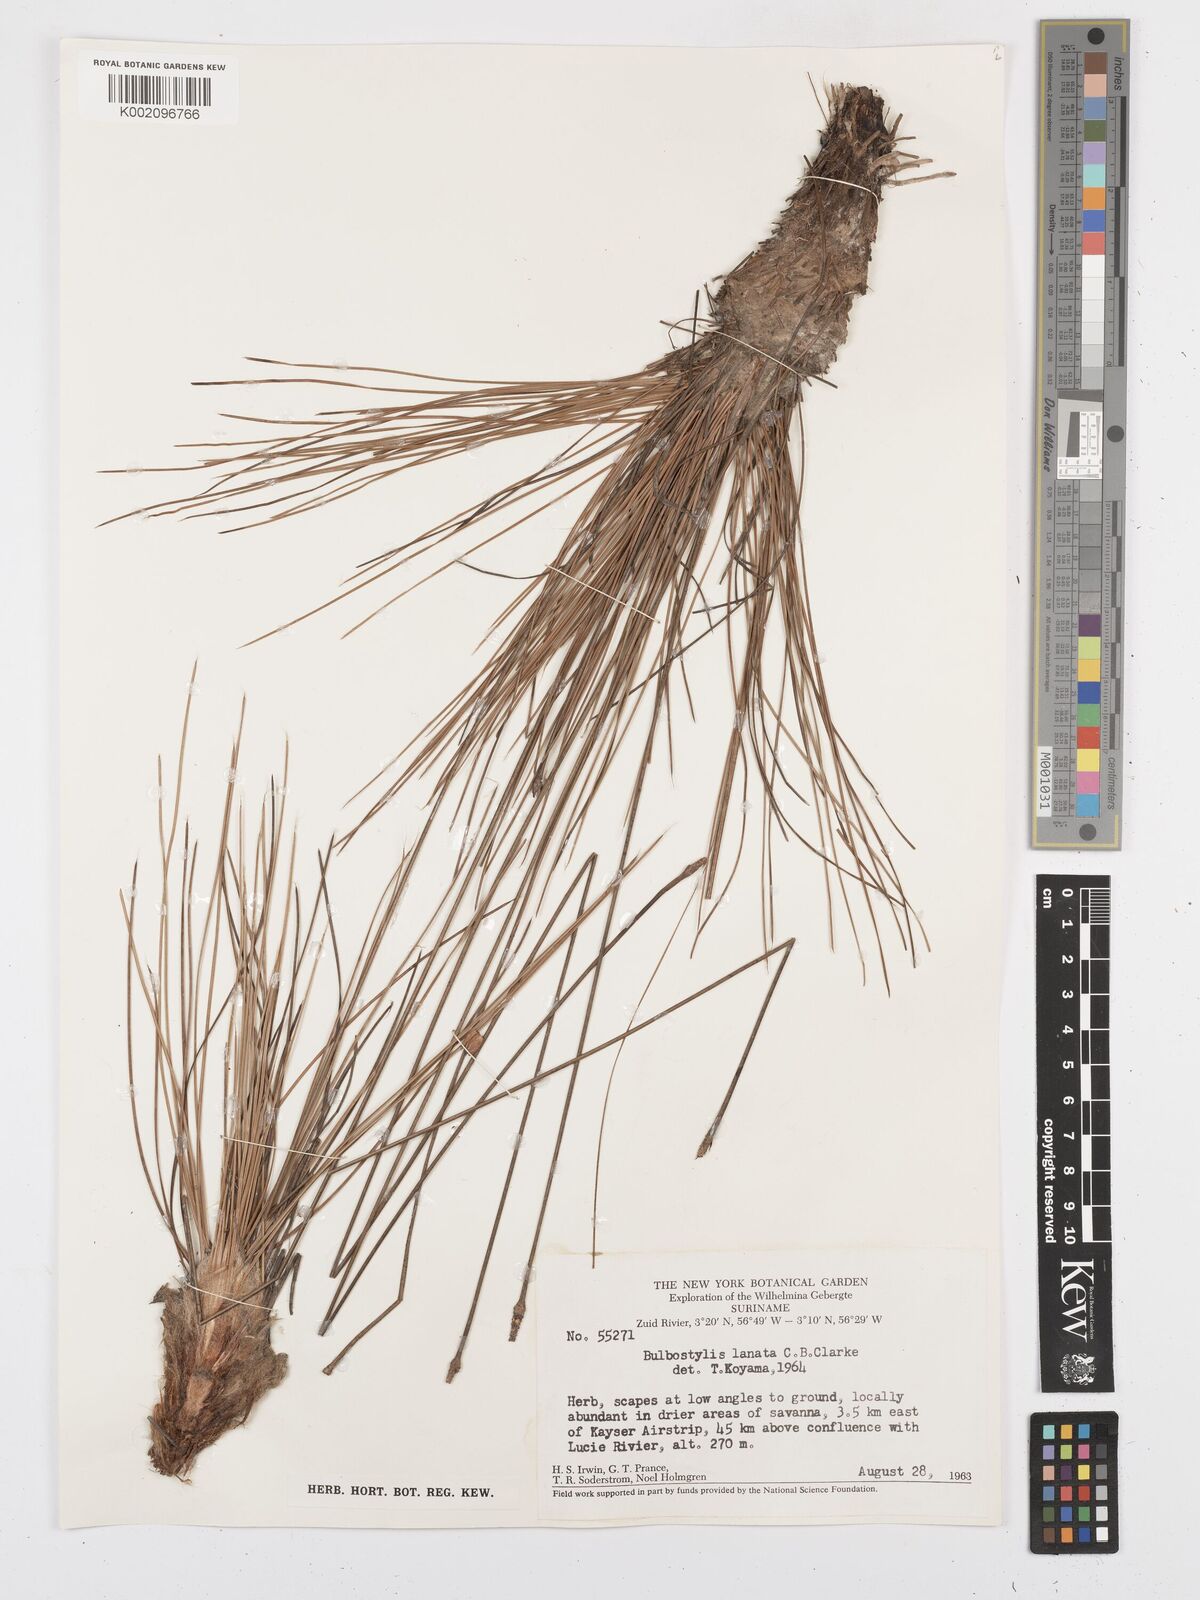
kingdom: Plantae
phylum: Tracheophyta
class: Liliopsida
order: Poales
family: Cyperaceae
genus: Bulbostylis
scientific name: Bulbostylis
